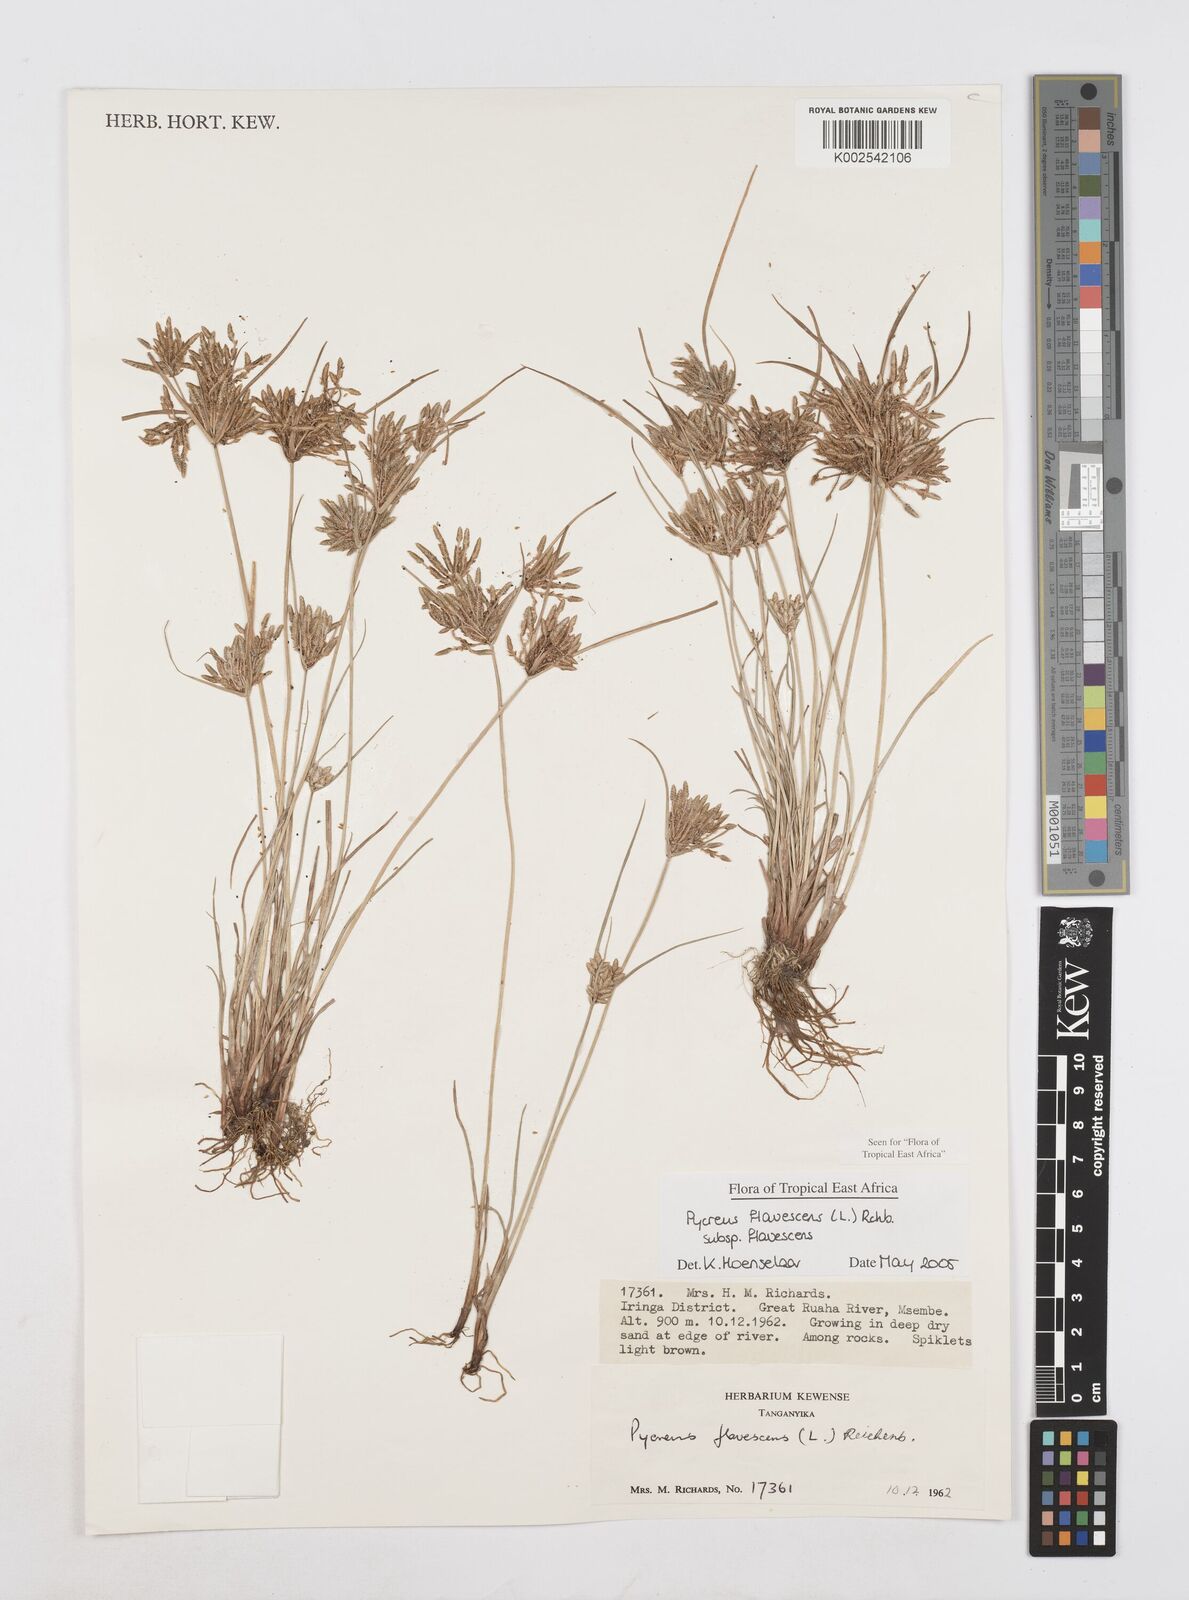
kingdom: Plantae
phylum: Tracheophyta
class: Liliopsida
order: Poales
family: Cyperaceae
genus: Cyperus
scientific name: Cyperus flavescens
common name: Yellow galingale
